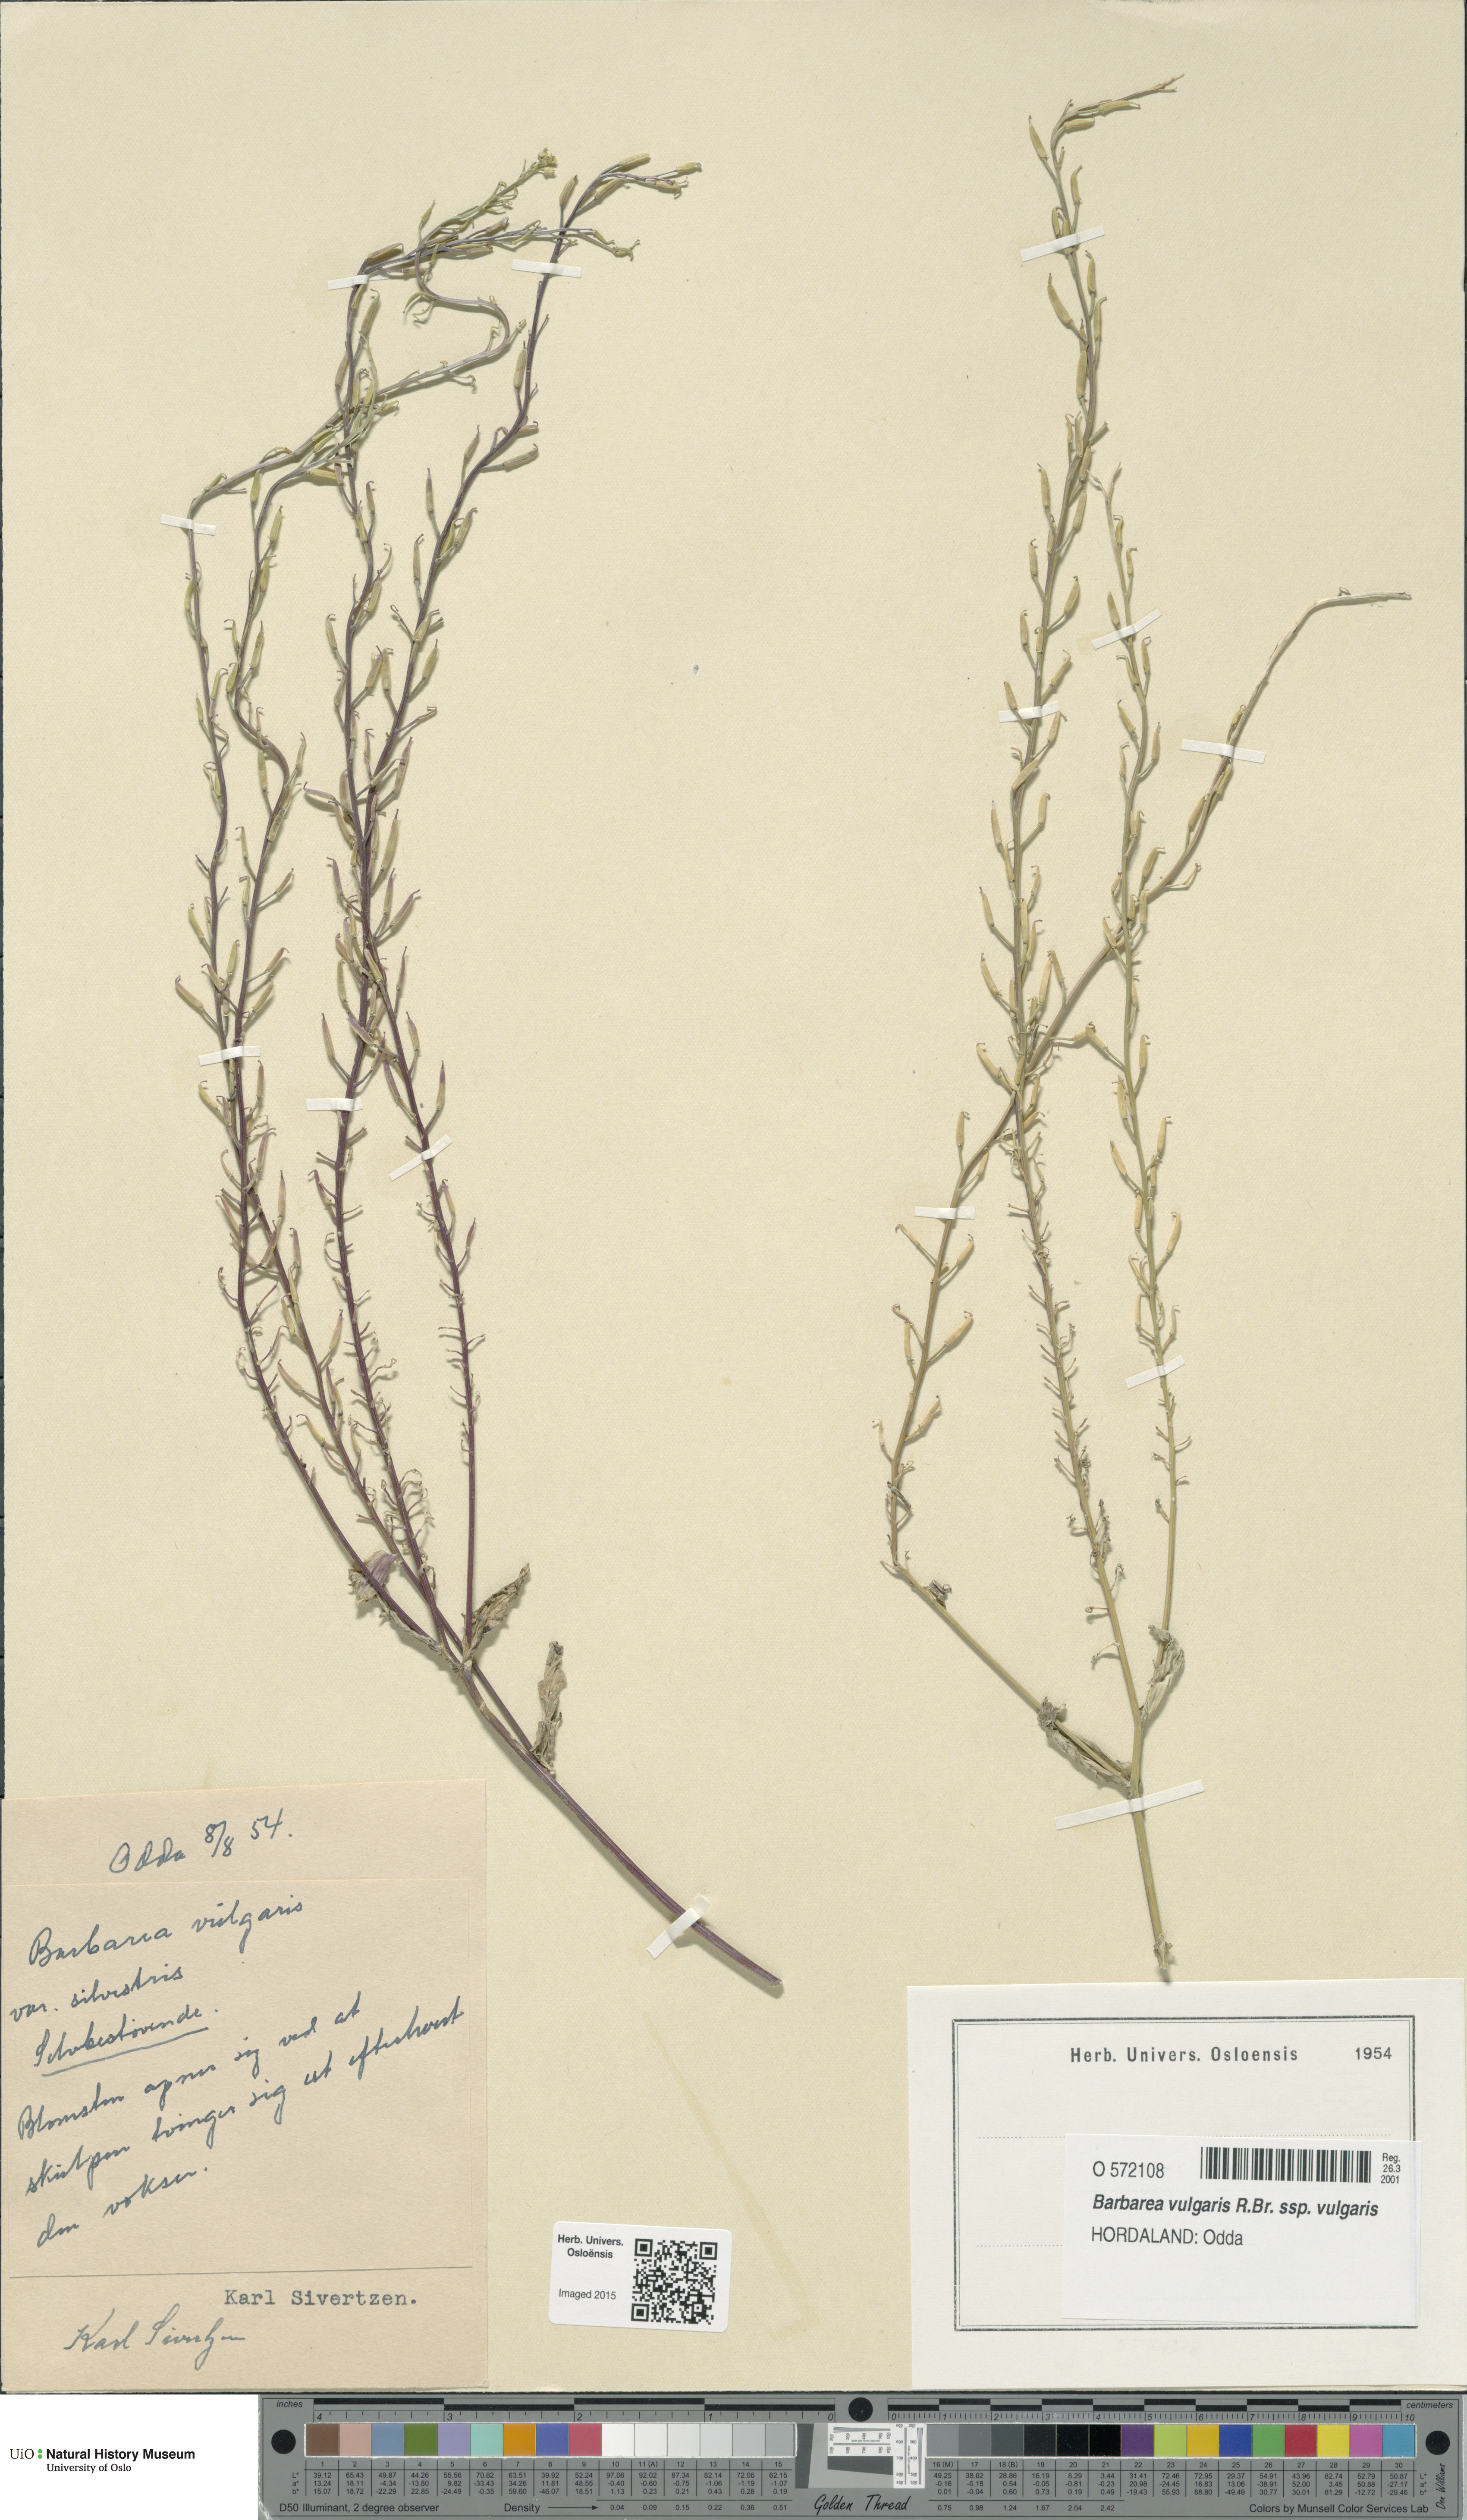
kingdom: Plantae
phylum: Tracheophyta
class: Magnoliopsida
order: Brassicales
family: Brassicaceae
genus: Barbarea
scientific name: Barbarea vulgaris
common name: Cressy-greens
